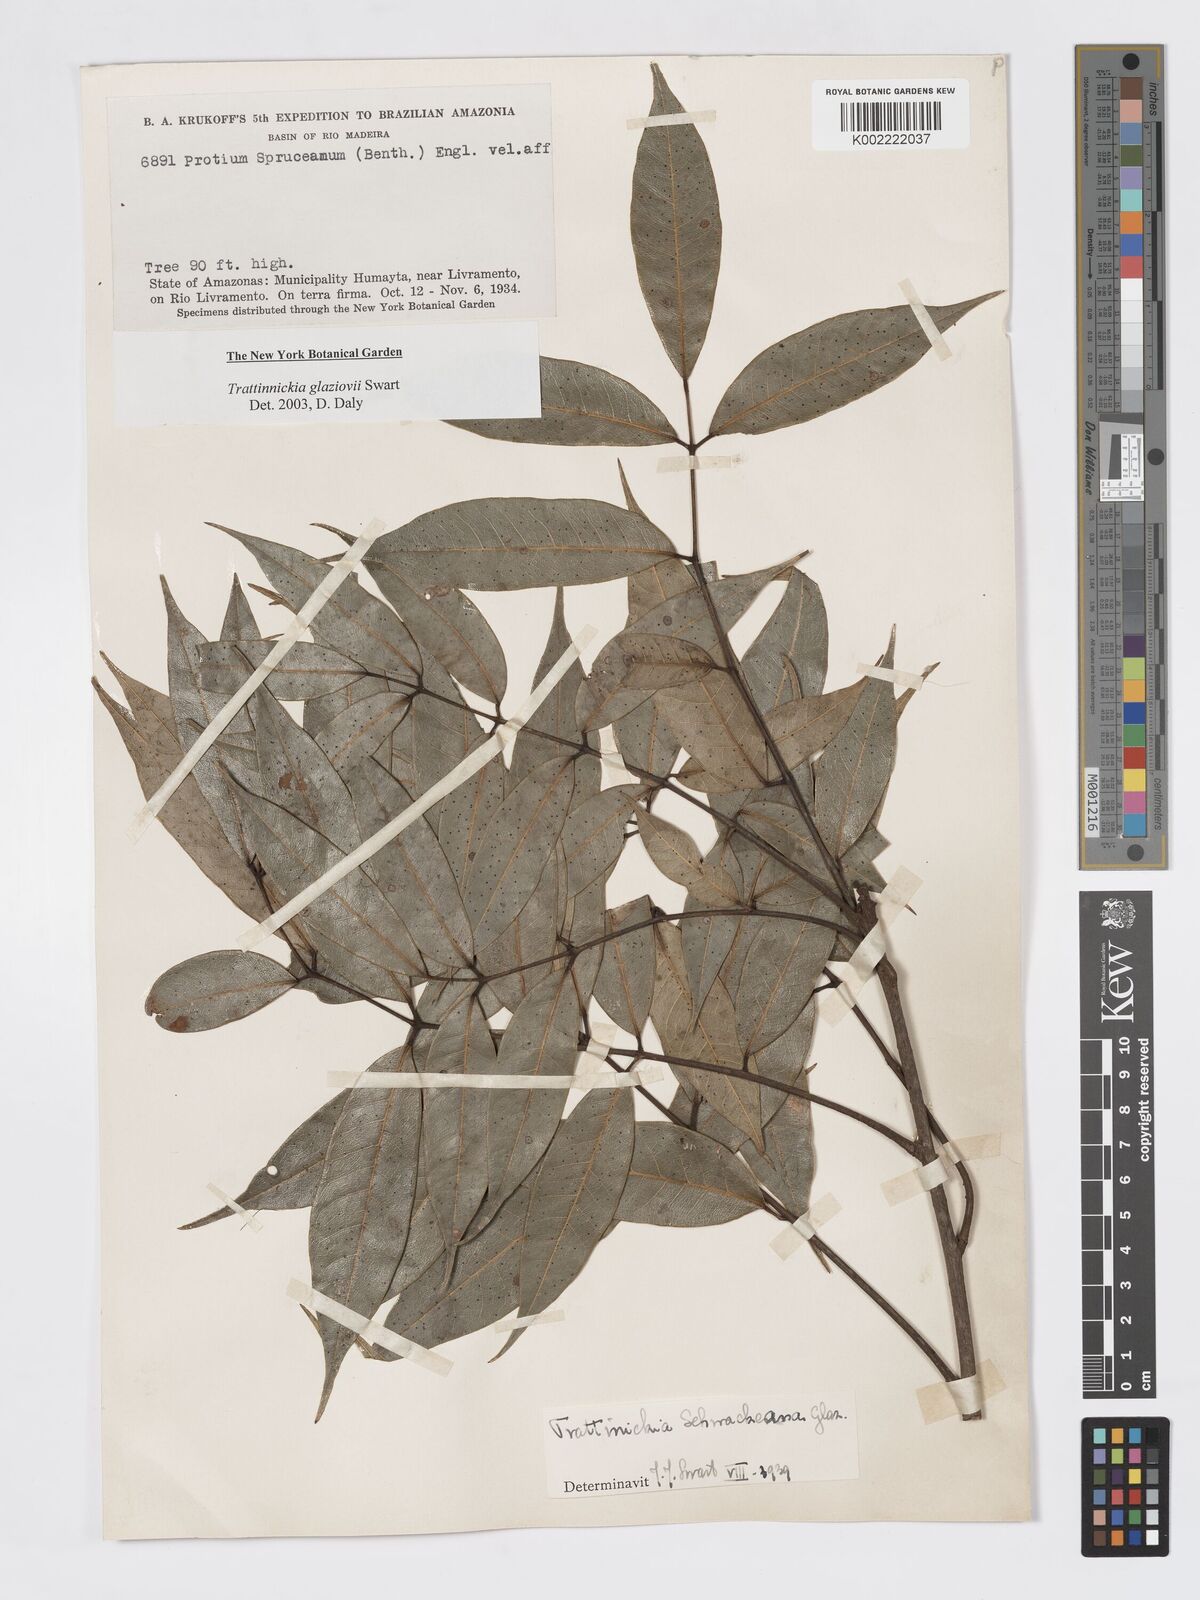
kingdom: Plantae
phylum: Tracheophyta
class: Magnoliopsida
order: Sapindales
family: Burseraceae
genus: Trattinnickia
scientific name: Trattinnickia glaziovii
